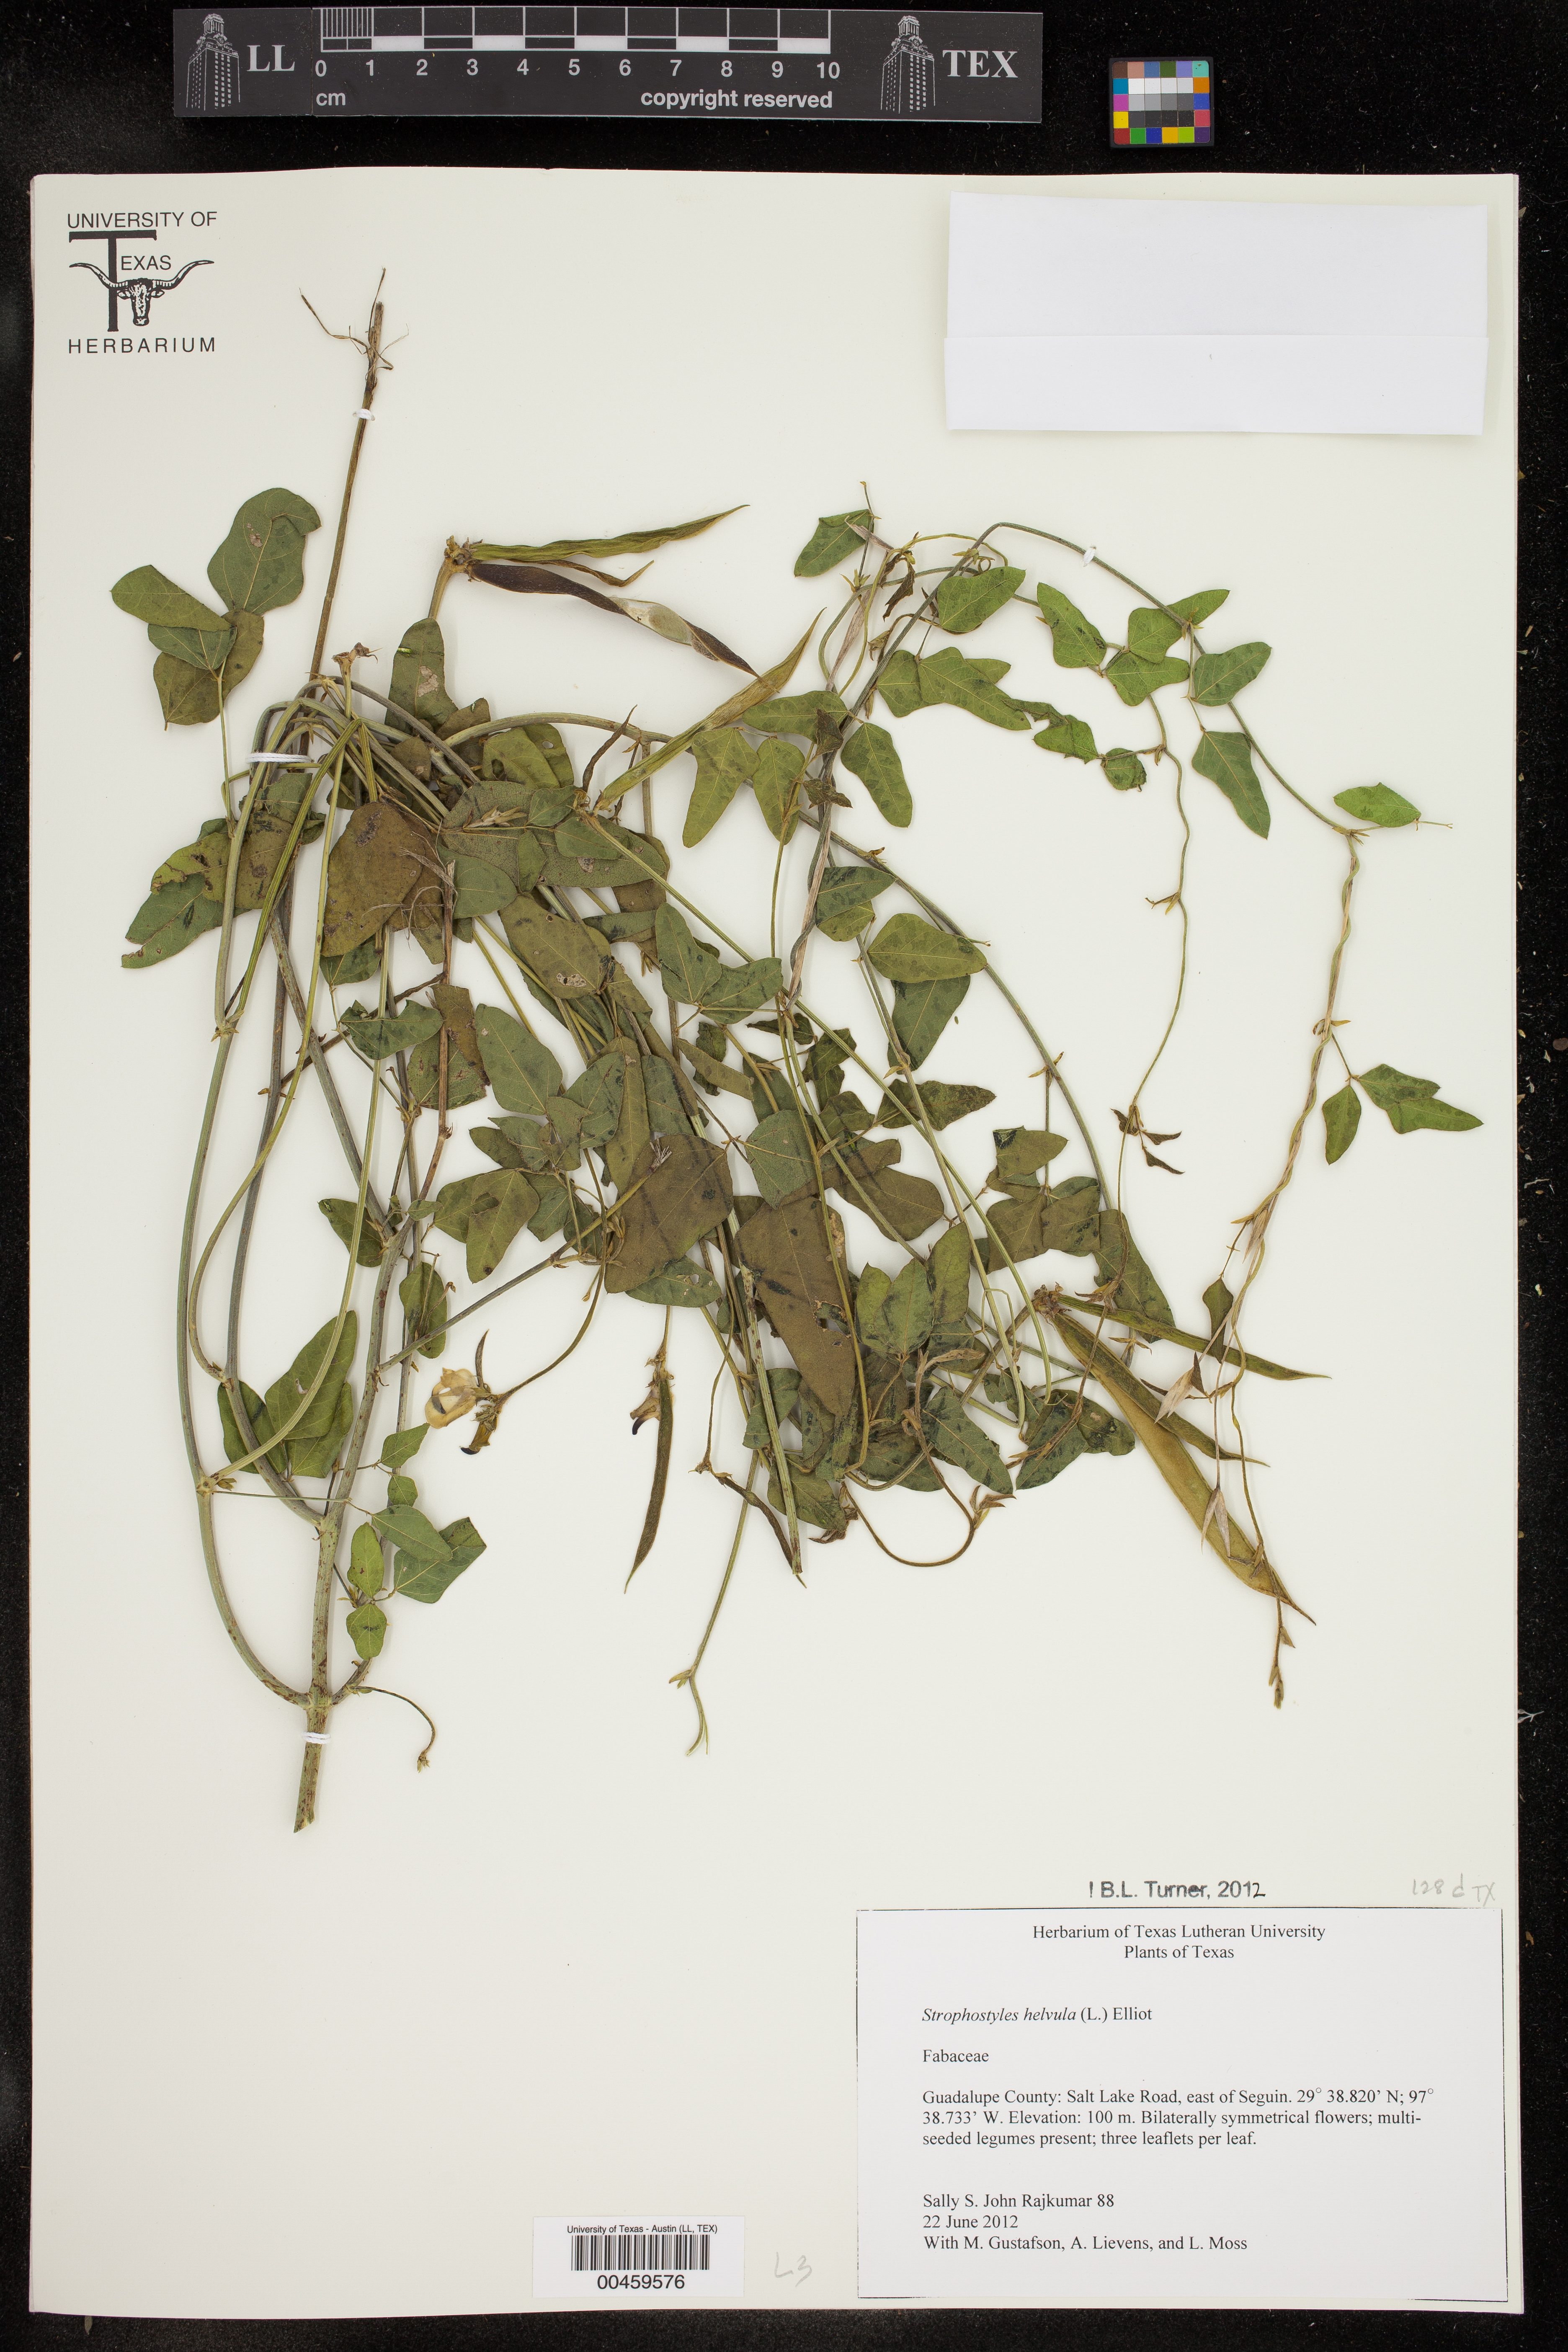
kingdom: Plantae
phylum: Tracheophyta
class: Magnoliopsida
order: Fabales
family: Fabaceae
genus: Strophostyles
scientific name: Strophostyles helvola
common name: Trailing wild bean
